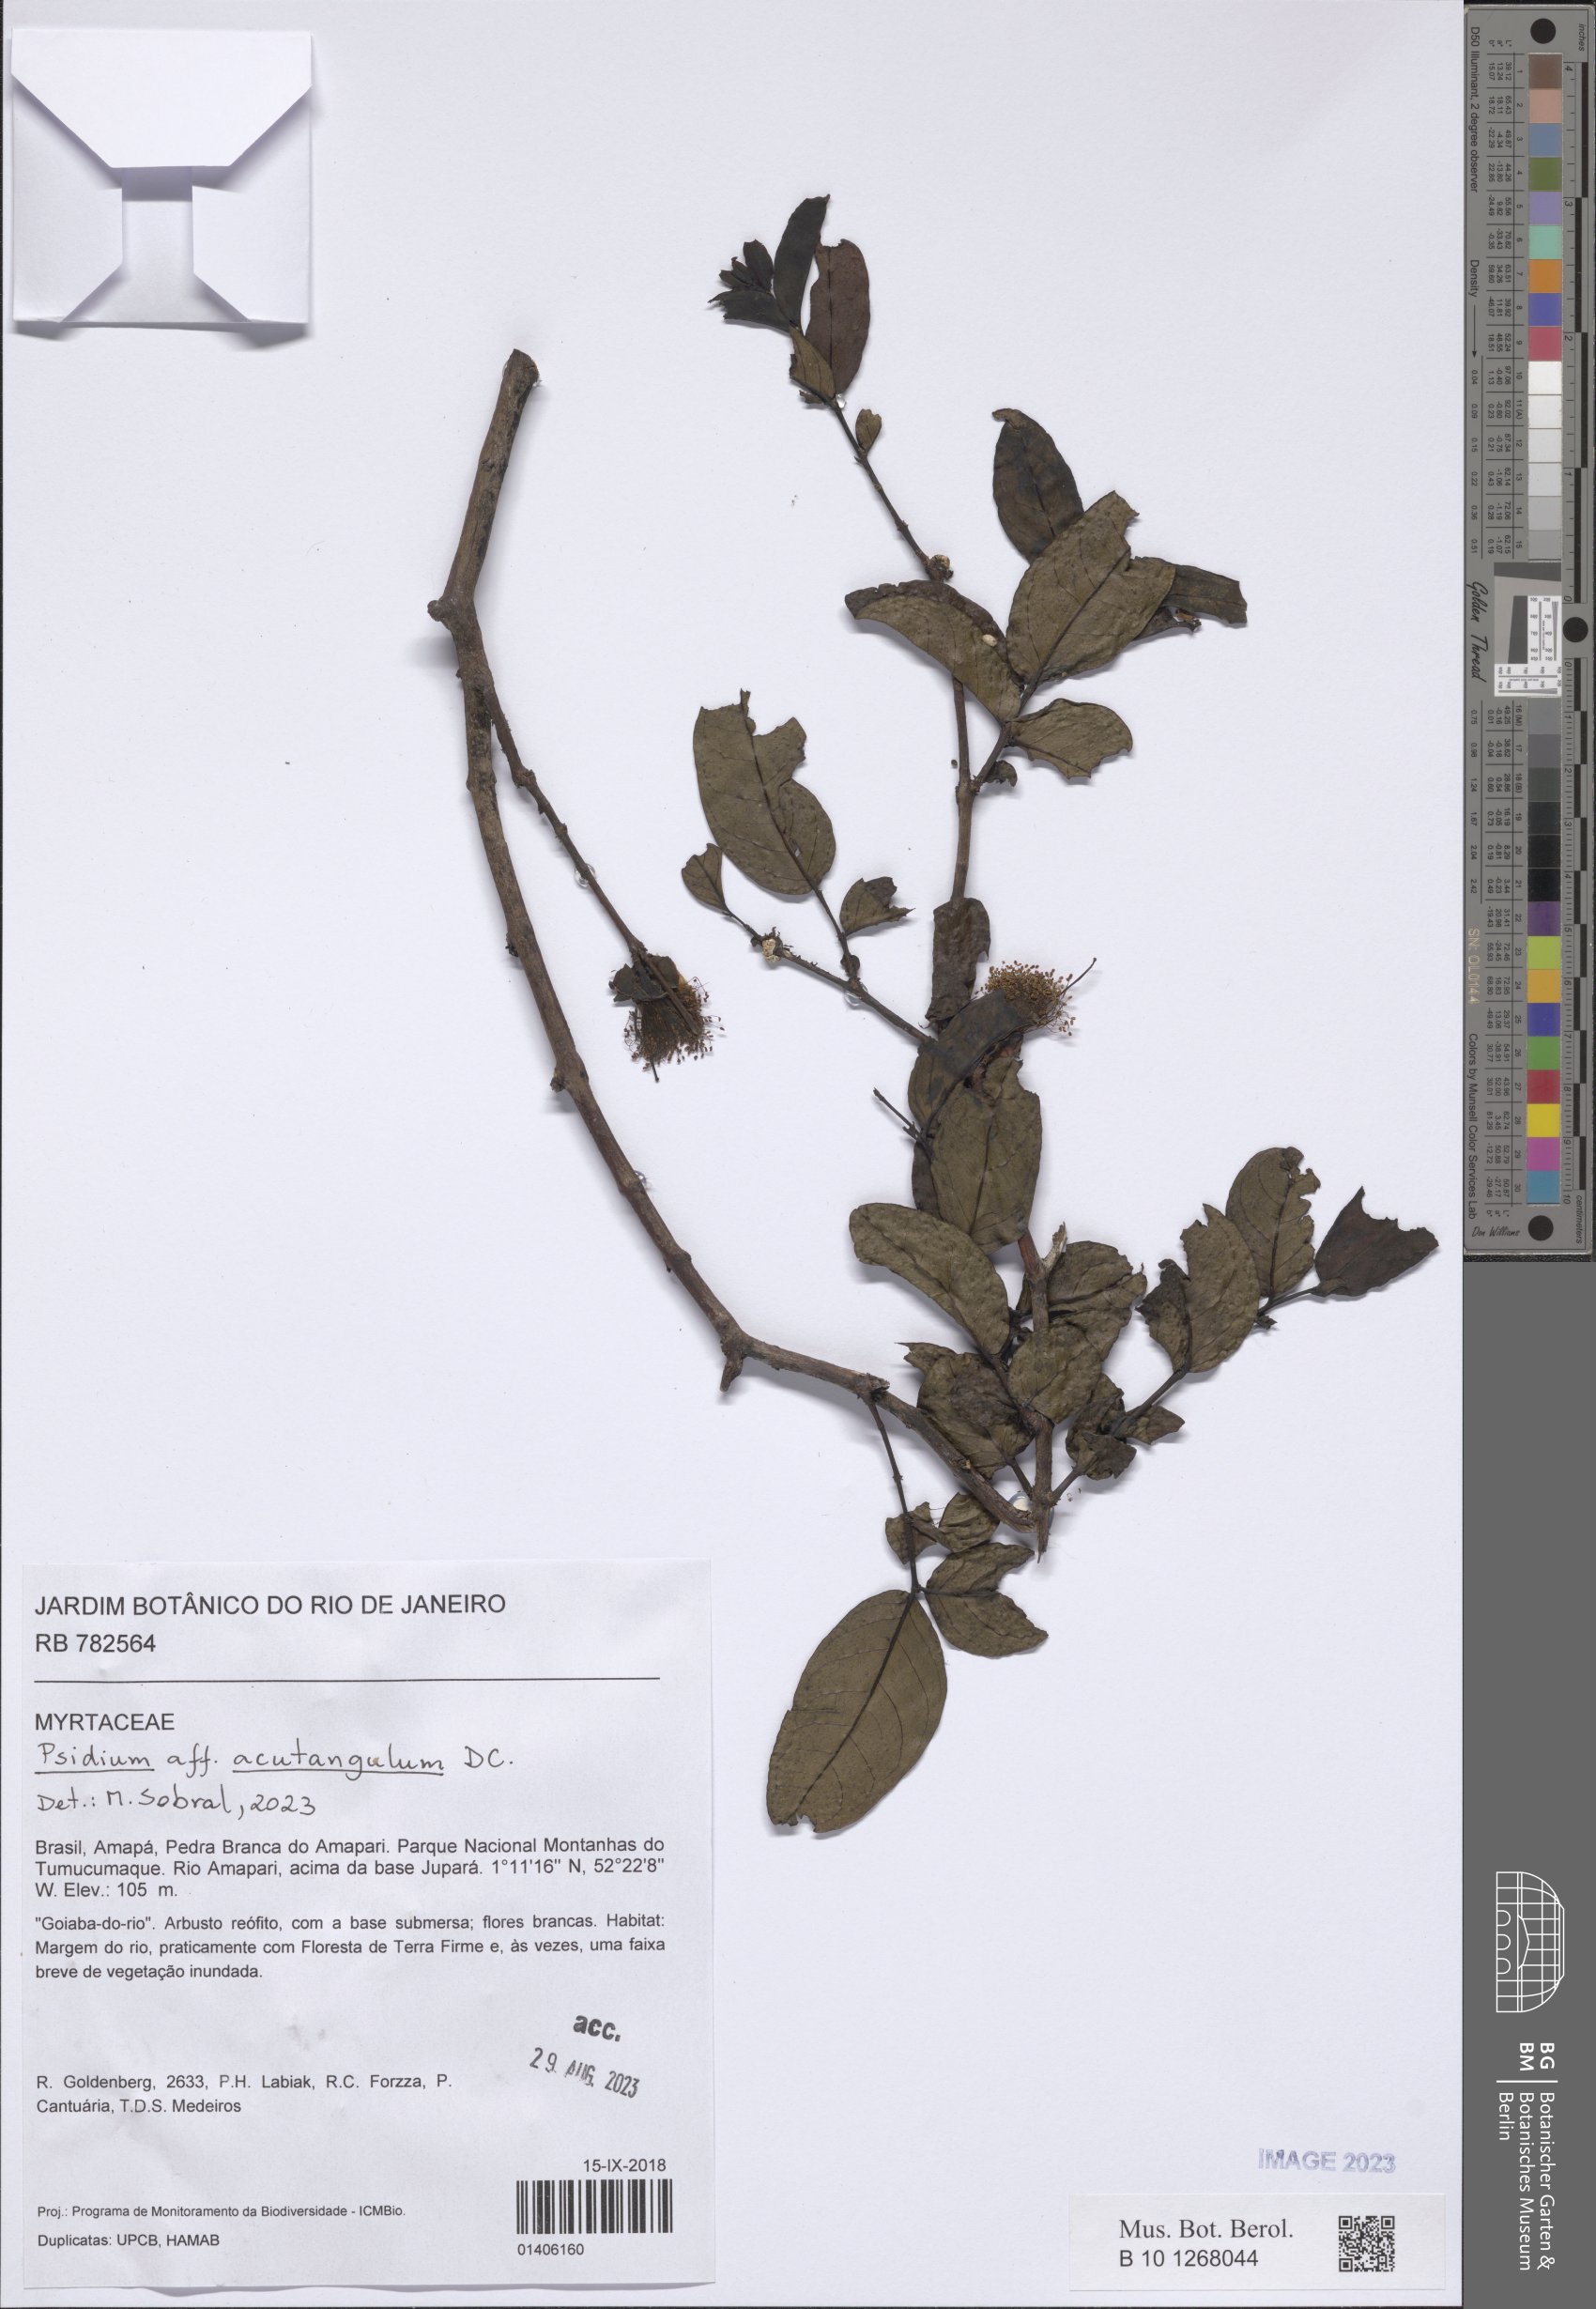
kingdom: Plantae
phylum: Tracheophyta
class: Magnoliopsida
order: Myrtales
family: Myrtaceae
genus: Myrcia
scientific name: Myrcia lepida
